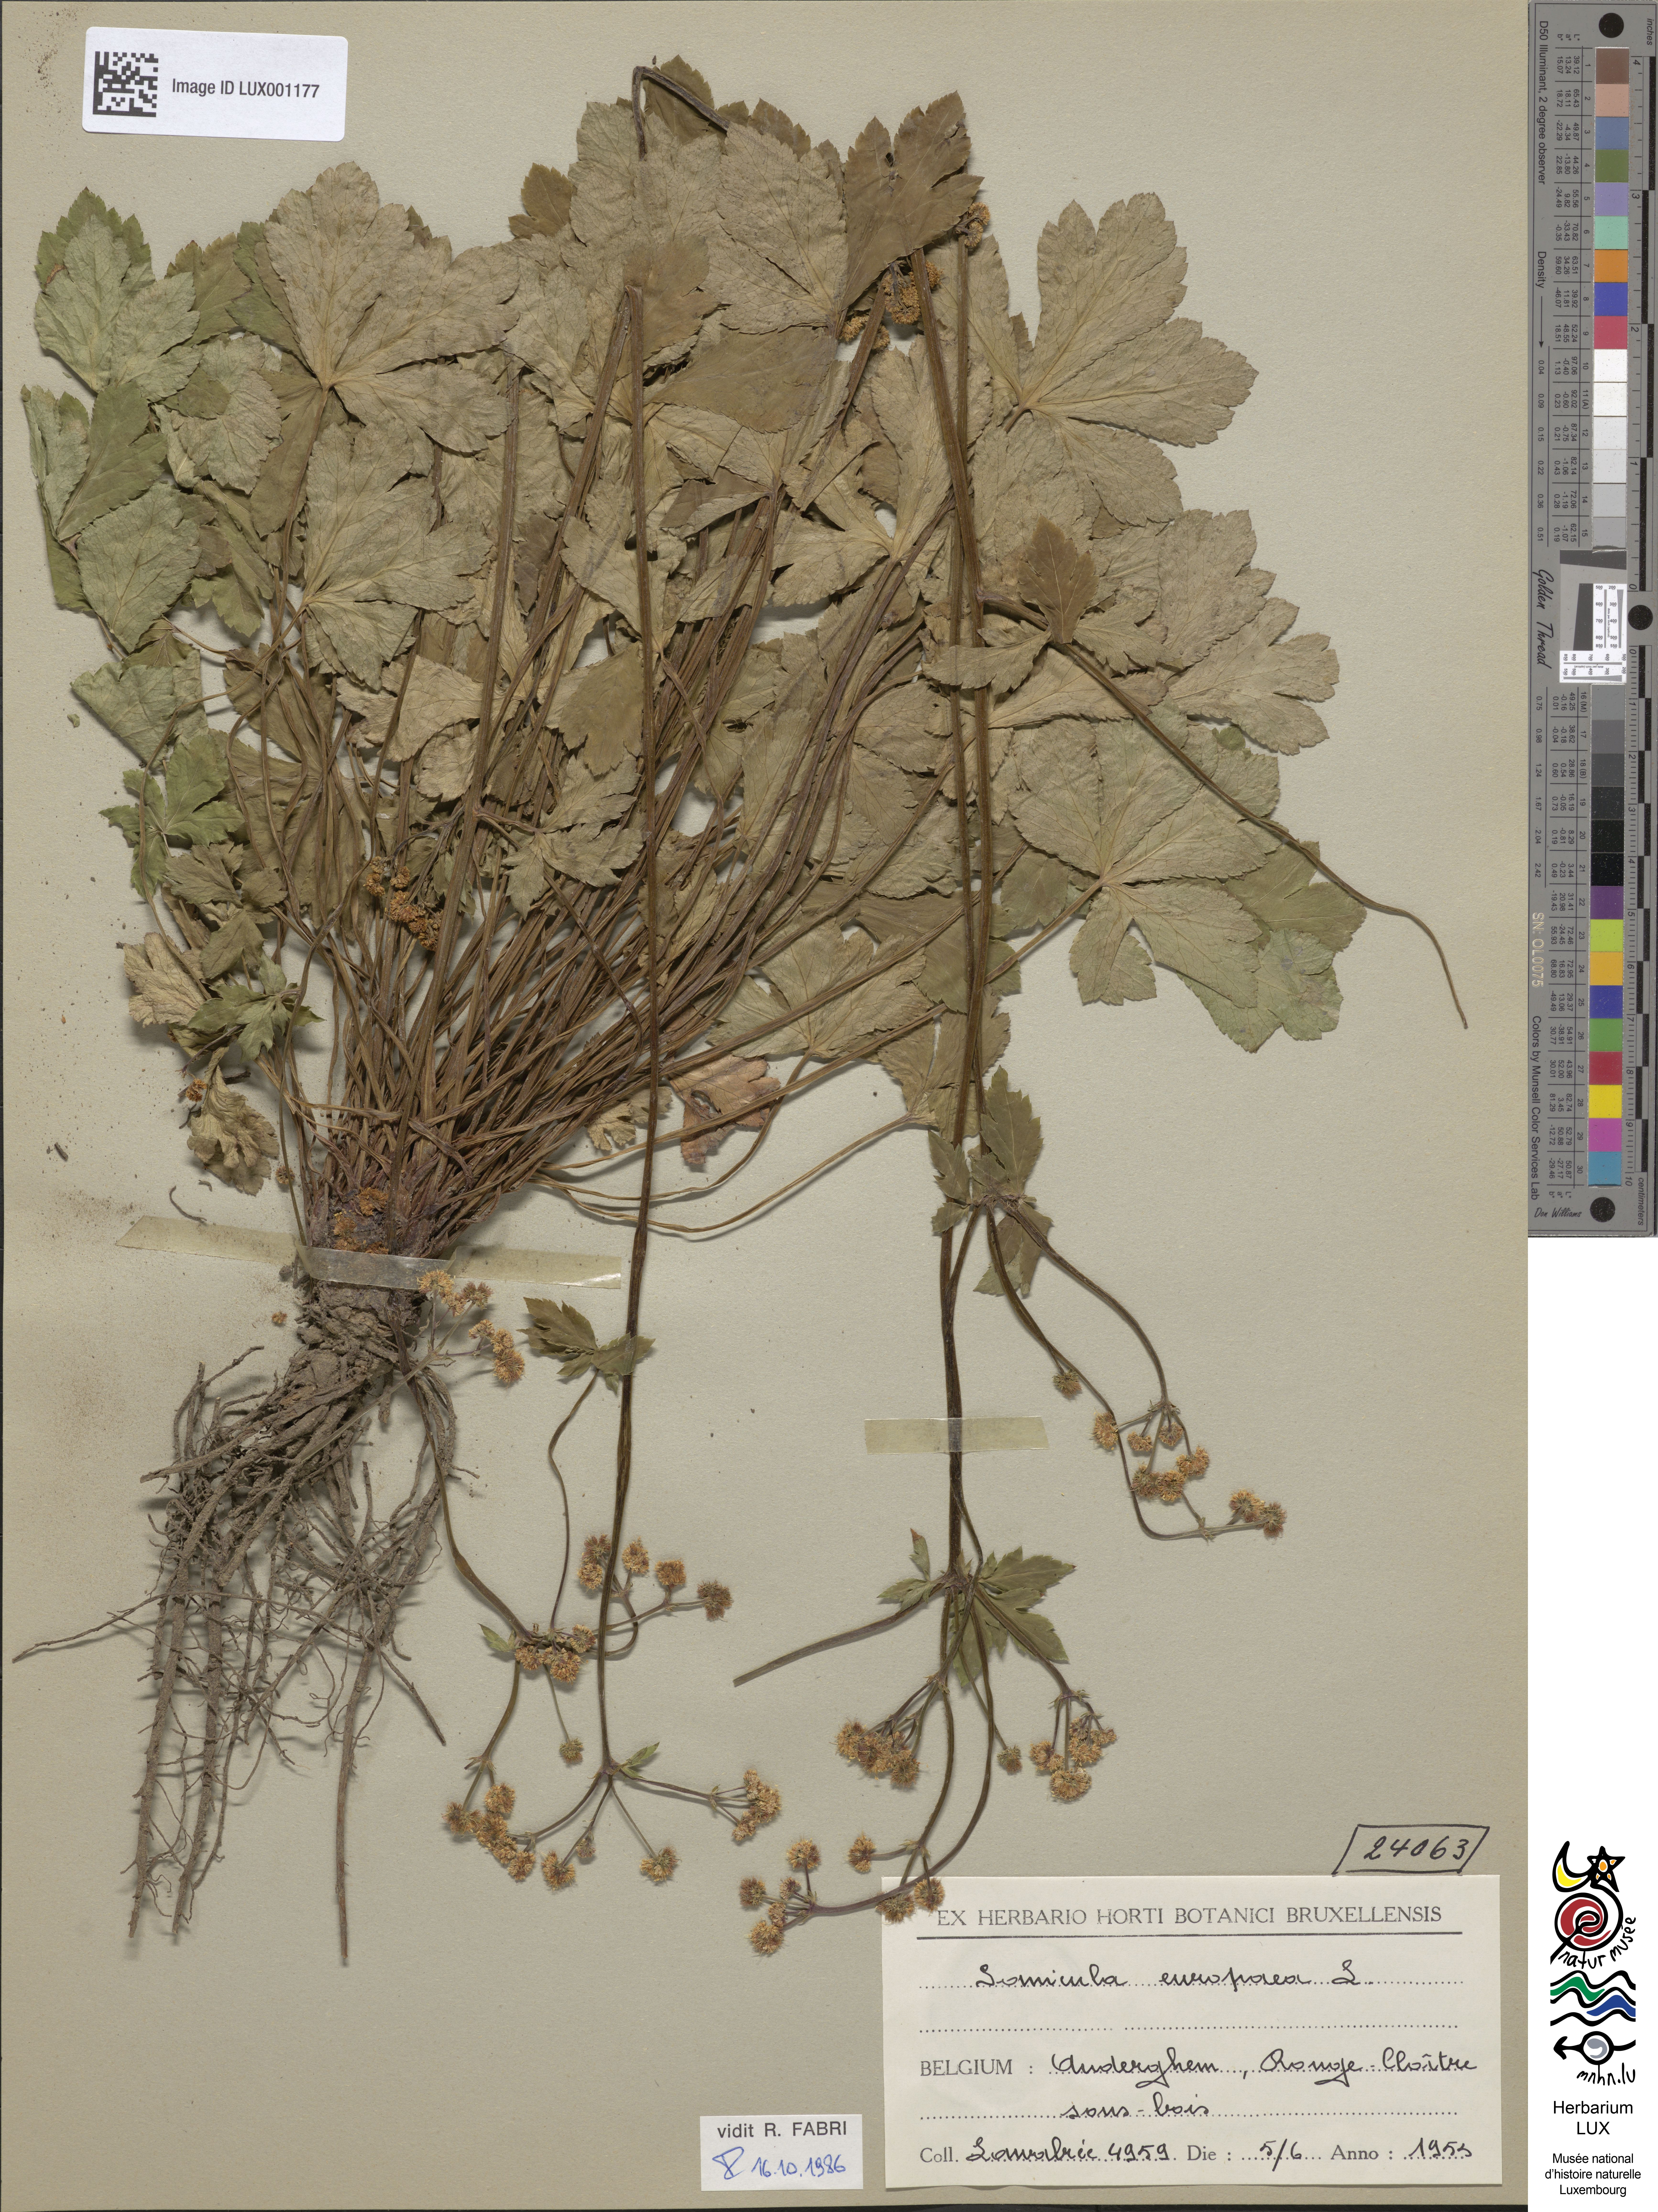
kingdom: Plantae
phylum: Tracheophyta
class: Magnoliopsida
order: Apiales
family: Apiaceae
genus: Sanicula
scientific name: Sanicula europaea
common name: Sanicle
